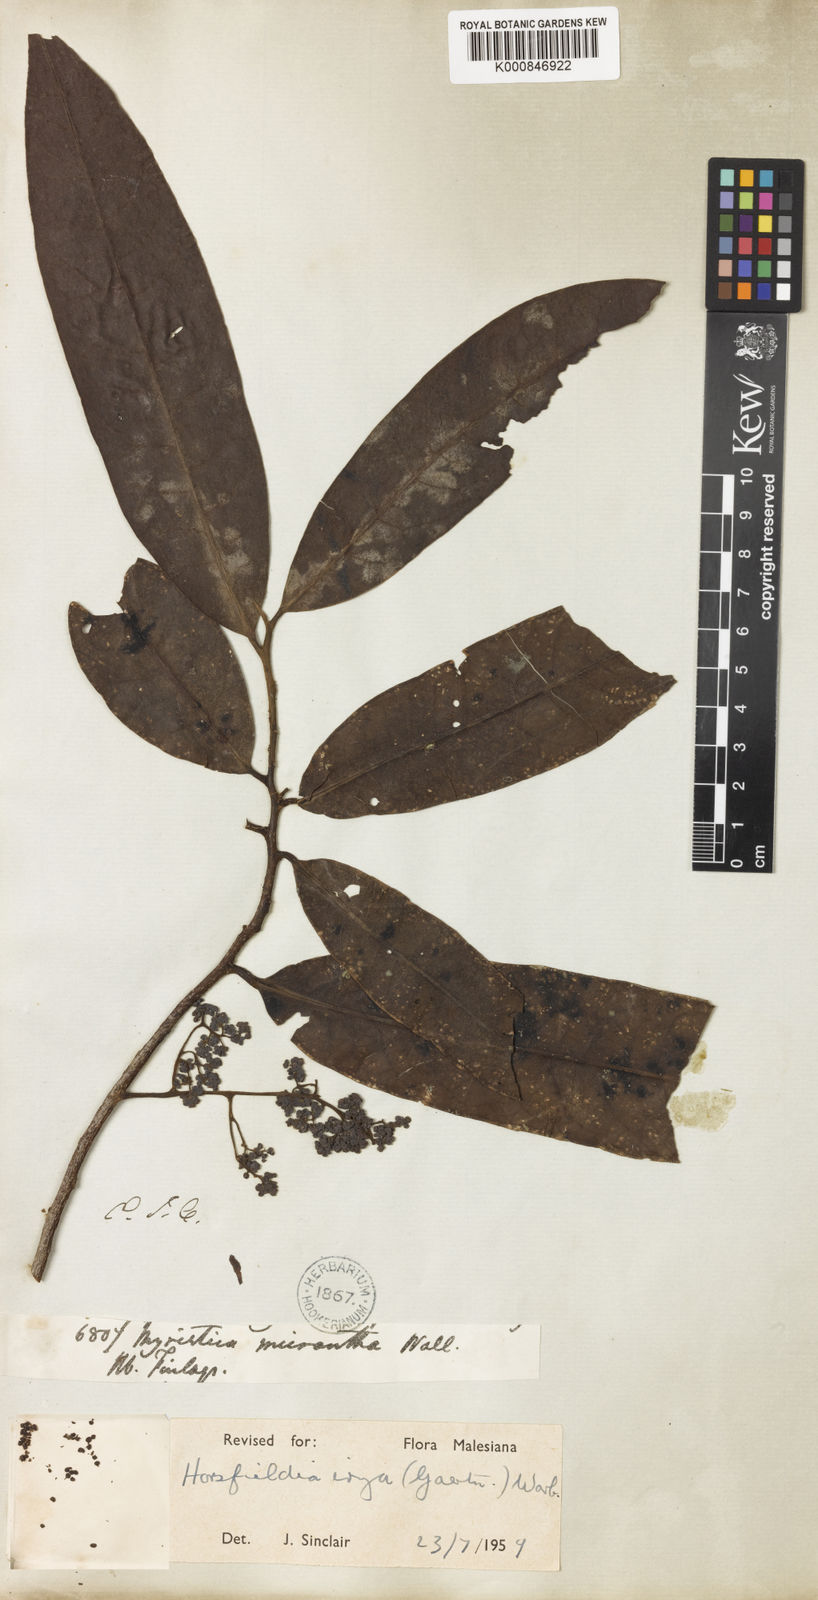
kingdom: Plantae
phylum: Tracheophyta
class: Magnoliopsida
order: Magnoliales
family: Myristicaceae
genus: Horsfieldia
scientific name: Horsfieldia irya
